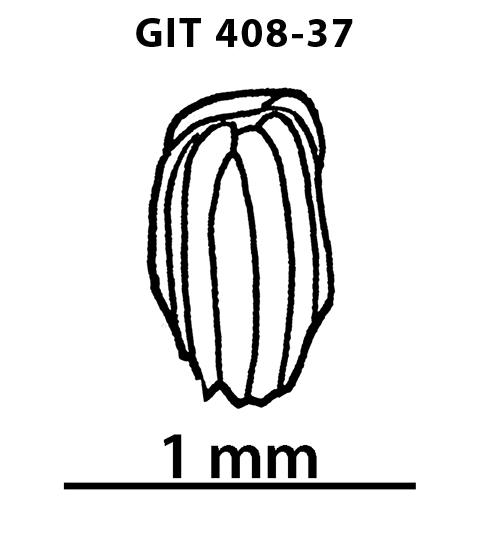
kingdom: Animalia
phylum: Chordata
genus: Archegonaspis
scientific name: Archegonaspis
